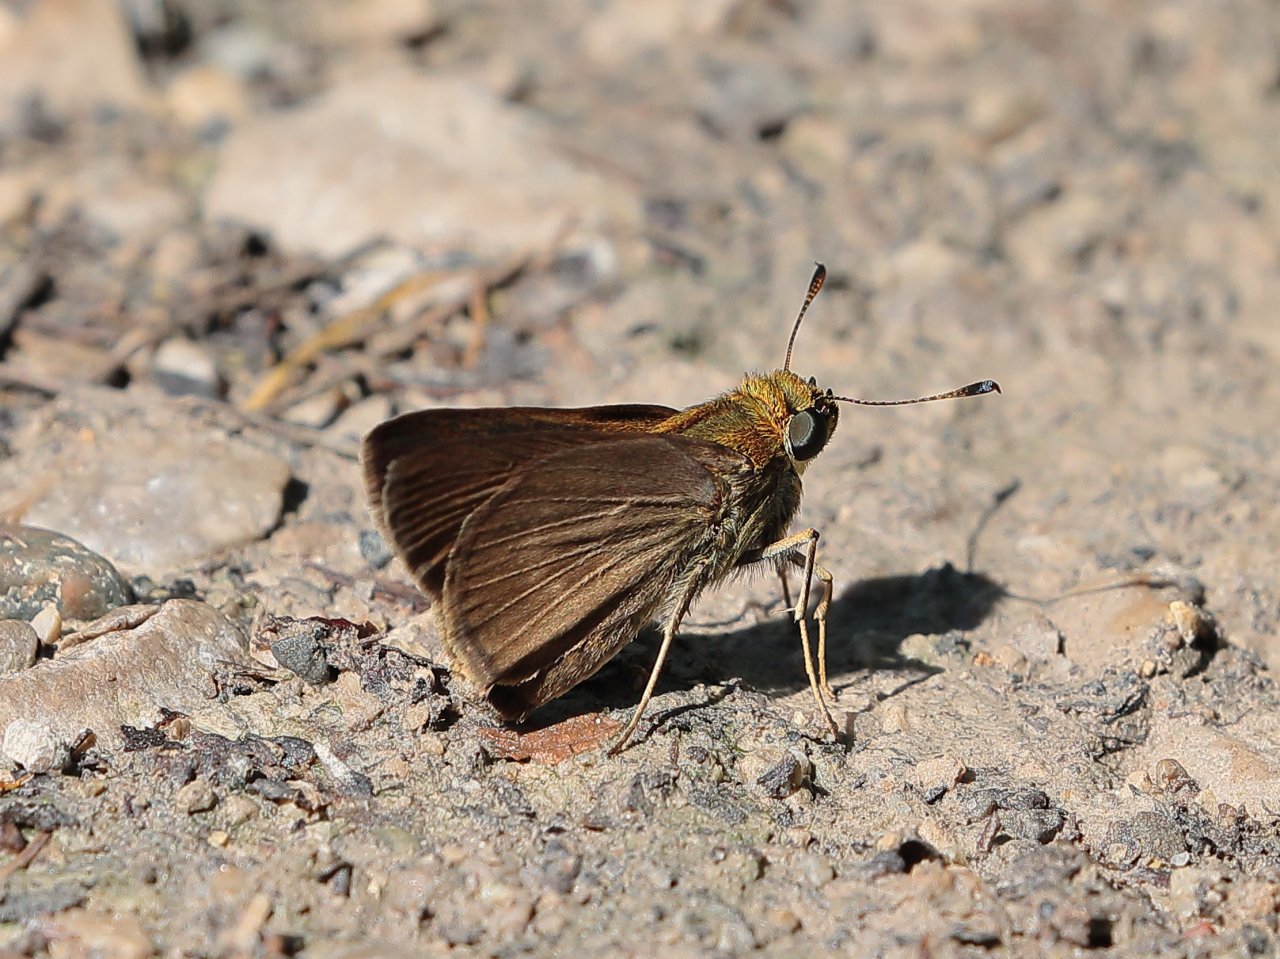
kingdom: Animalia
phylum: Arthropoda
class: Insecta
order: Lepidoptera
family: Hesperiidae
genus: Euphyes
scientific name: Euphyes vestris
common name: Dun Skipper
